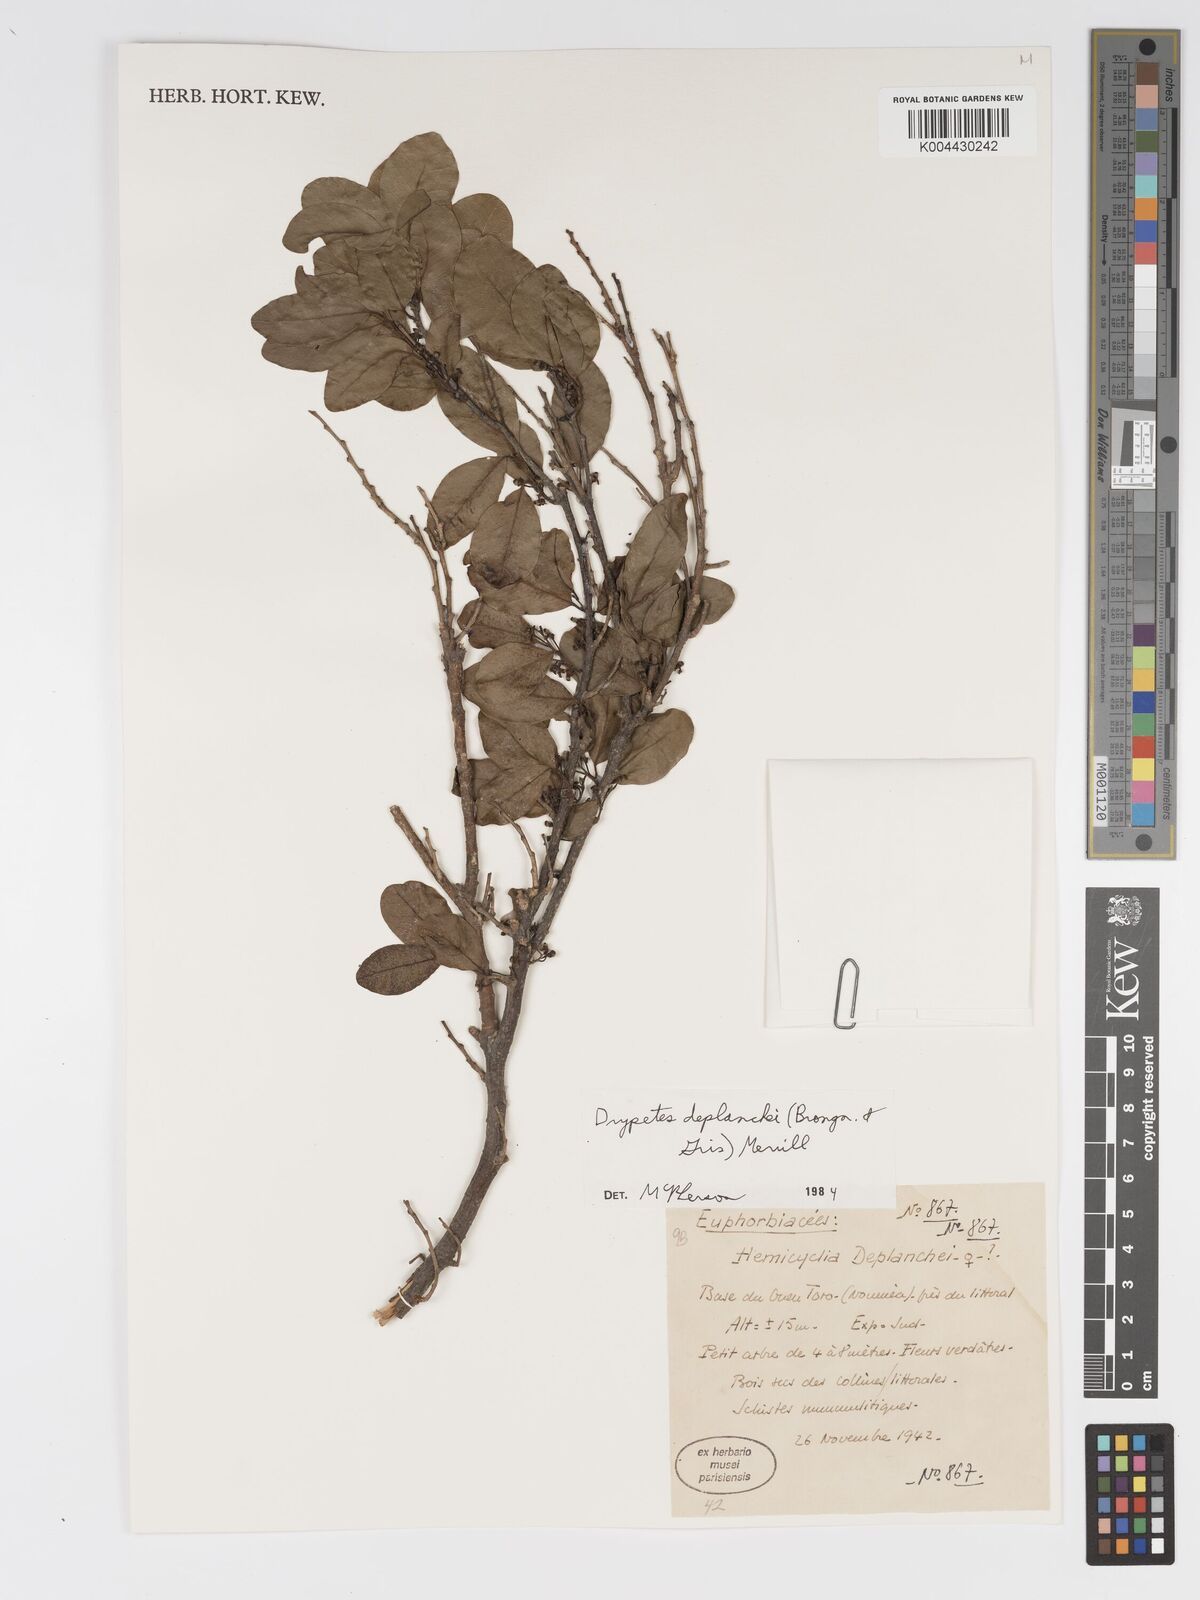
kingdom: Plantae
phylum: Tracheophyta
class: Magnoliopsida
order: Malpighiales
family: Putranjivaceae
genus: Drypetes
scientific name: Drypetes deplanchei
